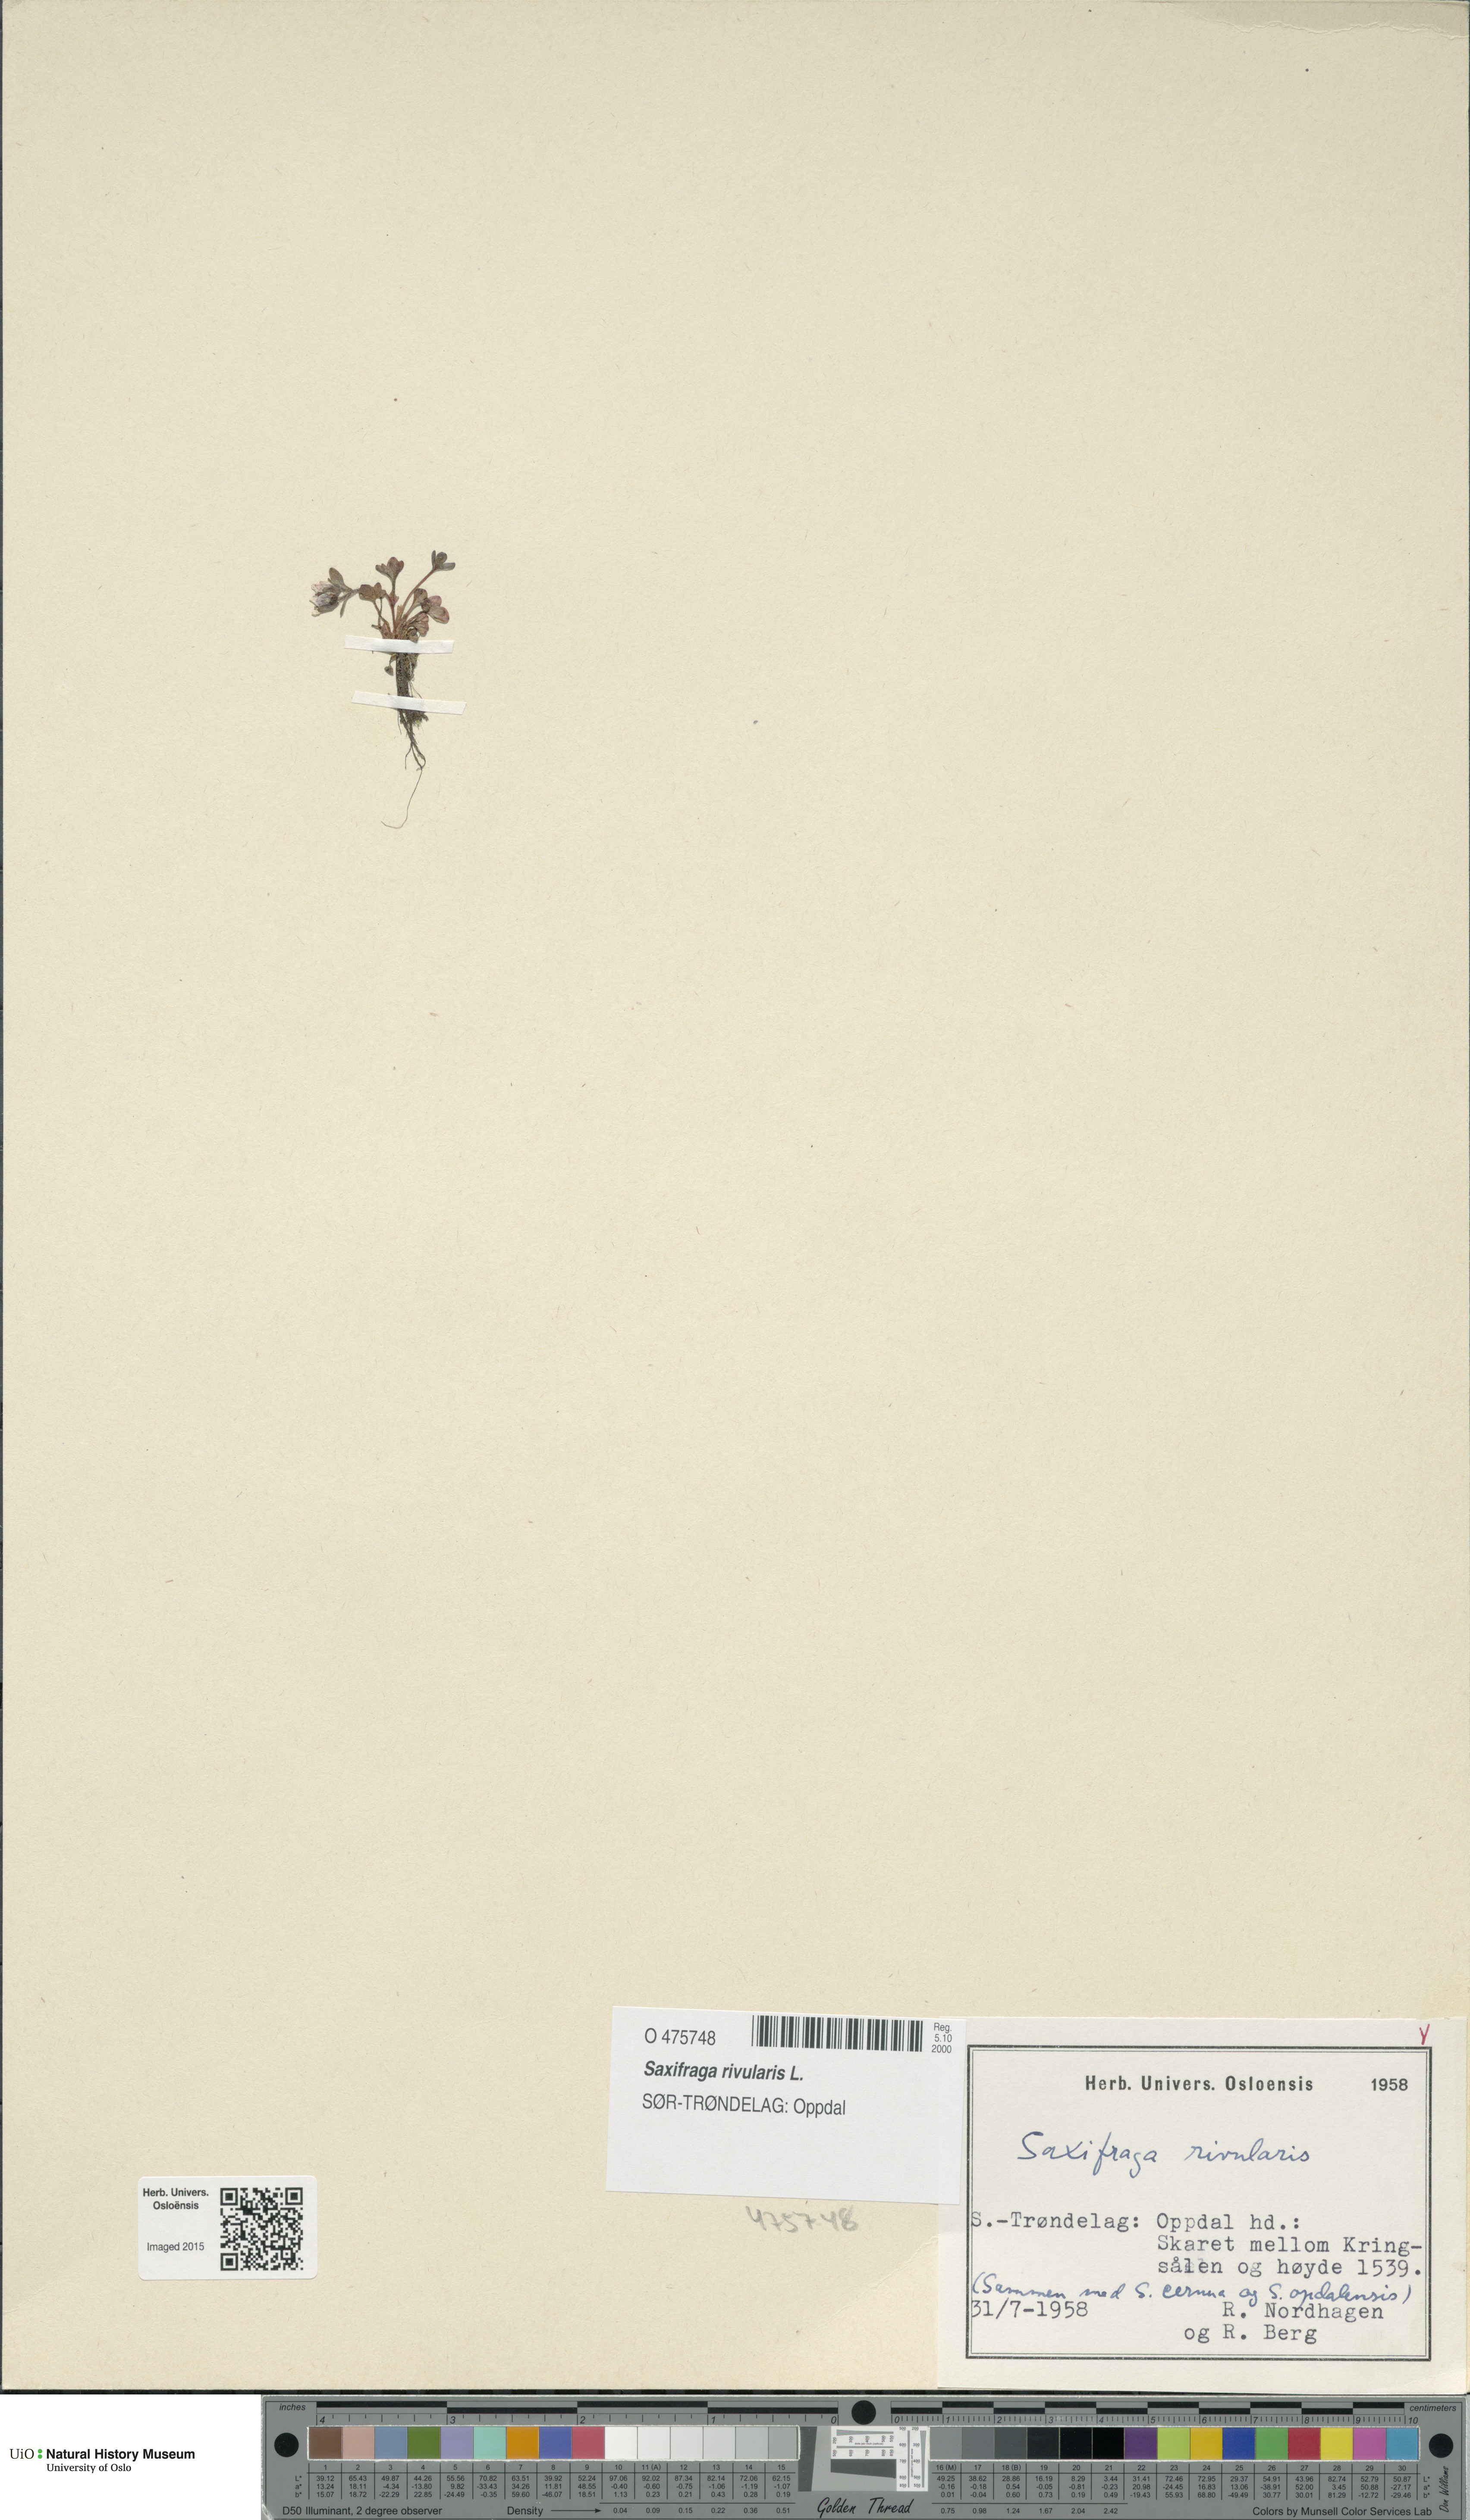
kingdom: Plantae
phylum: Tracheophyta
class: Magnoliopsida
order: Saxifragales
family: Saxifragaceae
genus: Saxifraga
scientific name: Saxifraga rivularis
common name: Highland saxifrage
